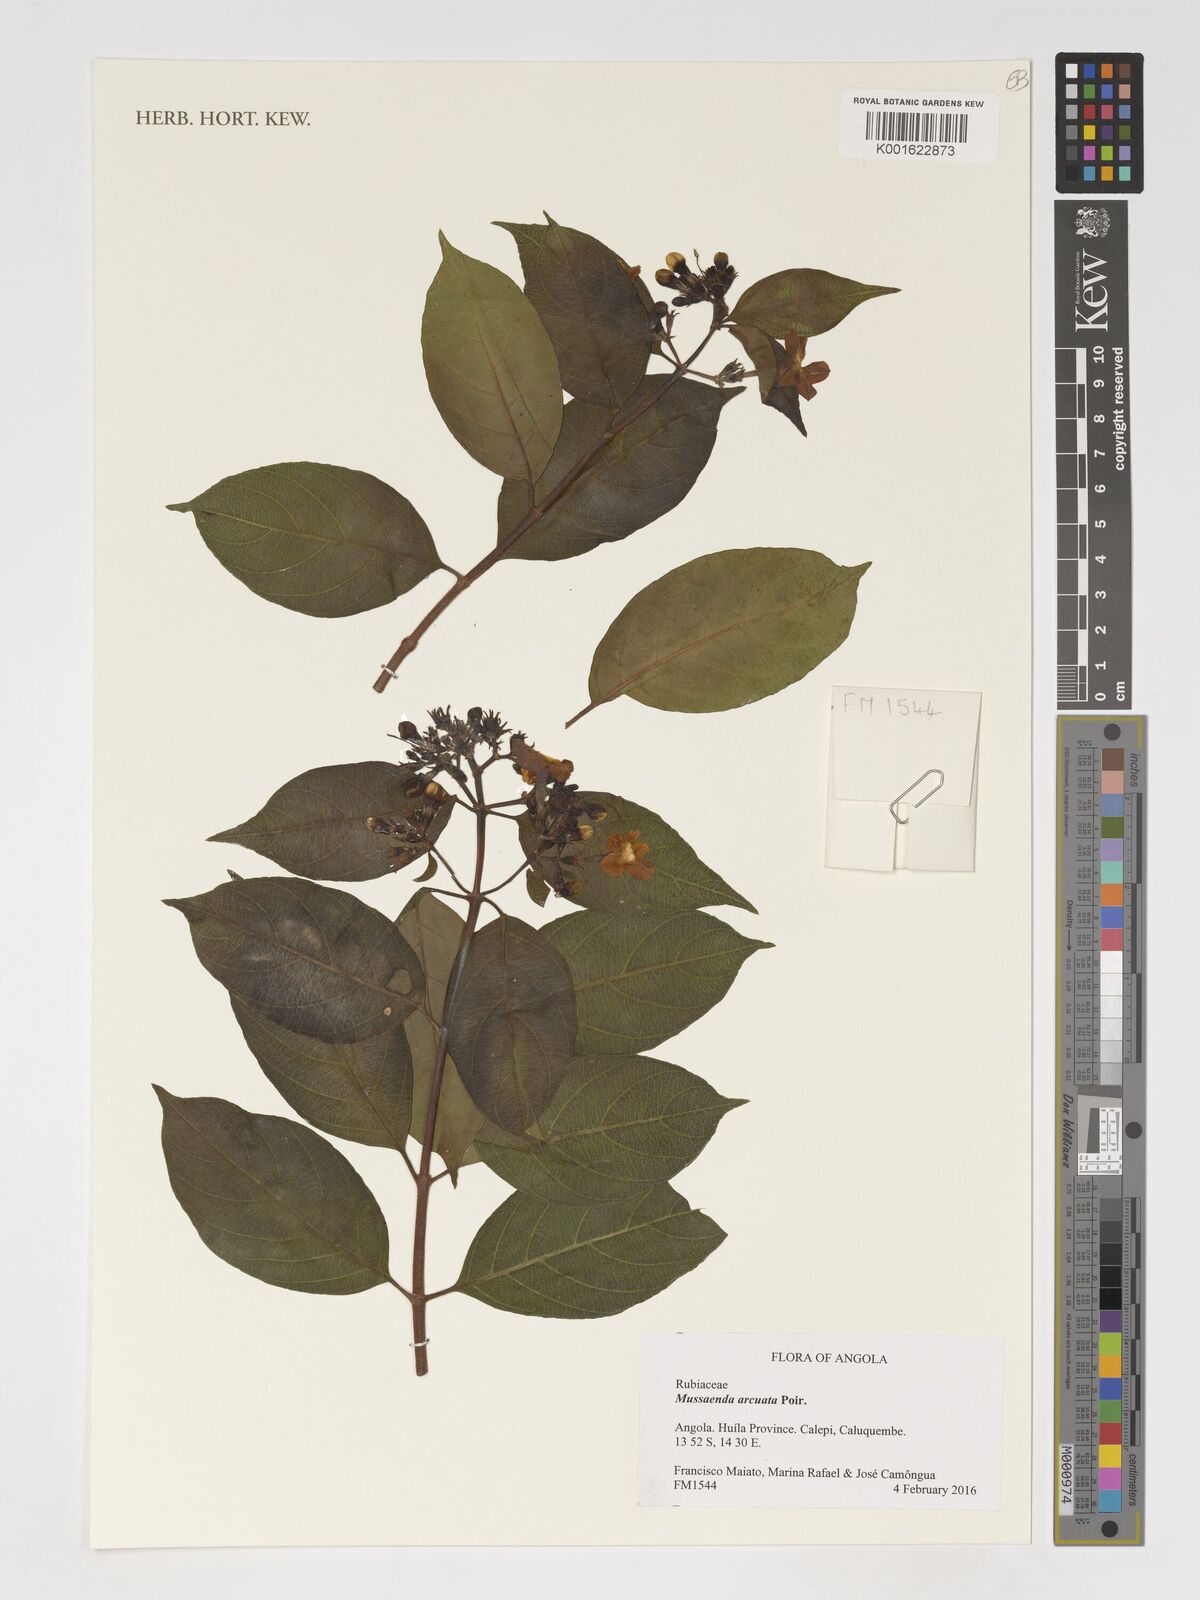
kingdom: Plantae
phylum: Tracheophyta
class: Magnoliopsida
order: Gentianales
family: Rubiaceae
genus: Mussaenda
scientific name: Mussaenda arcuata
